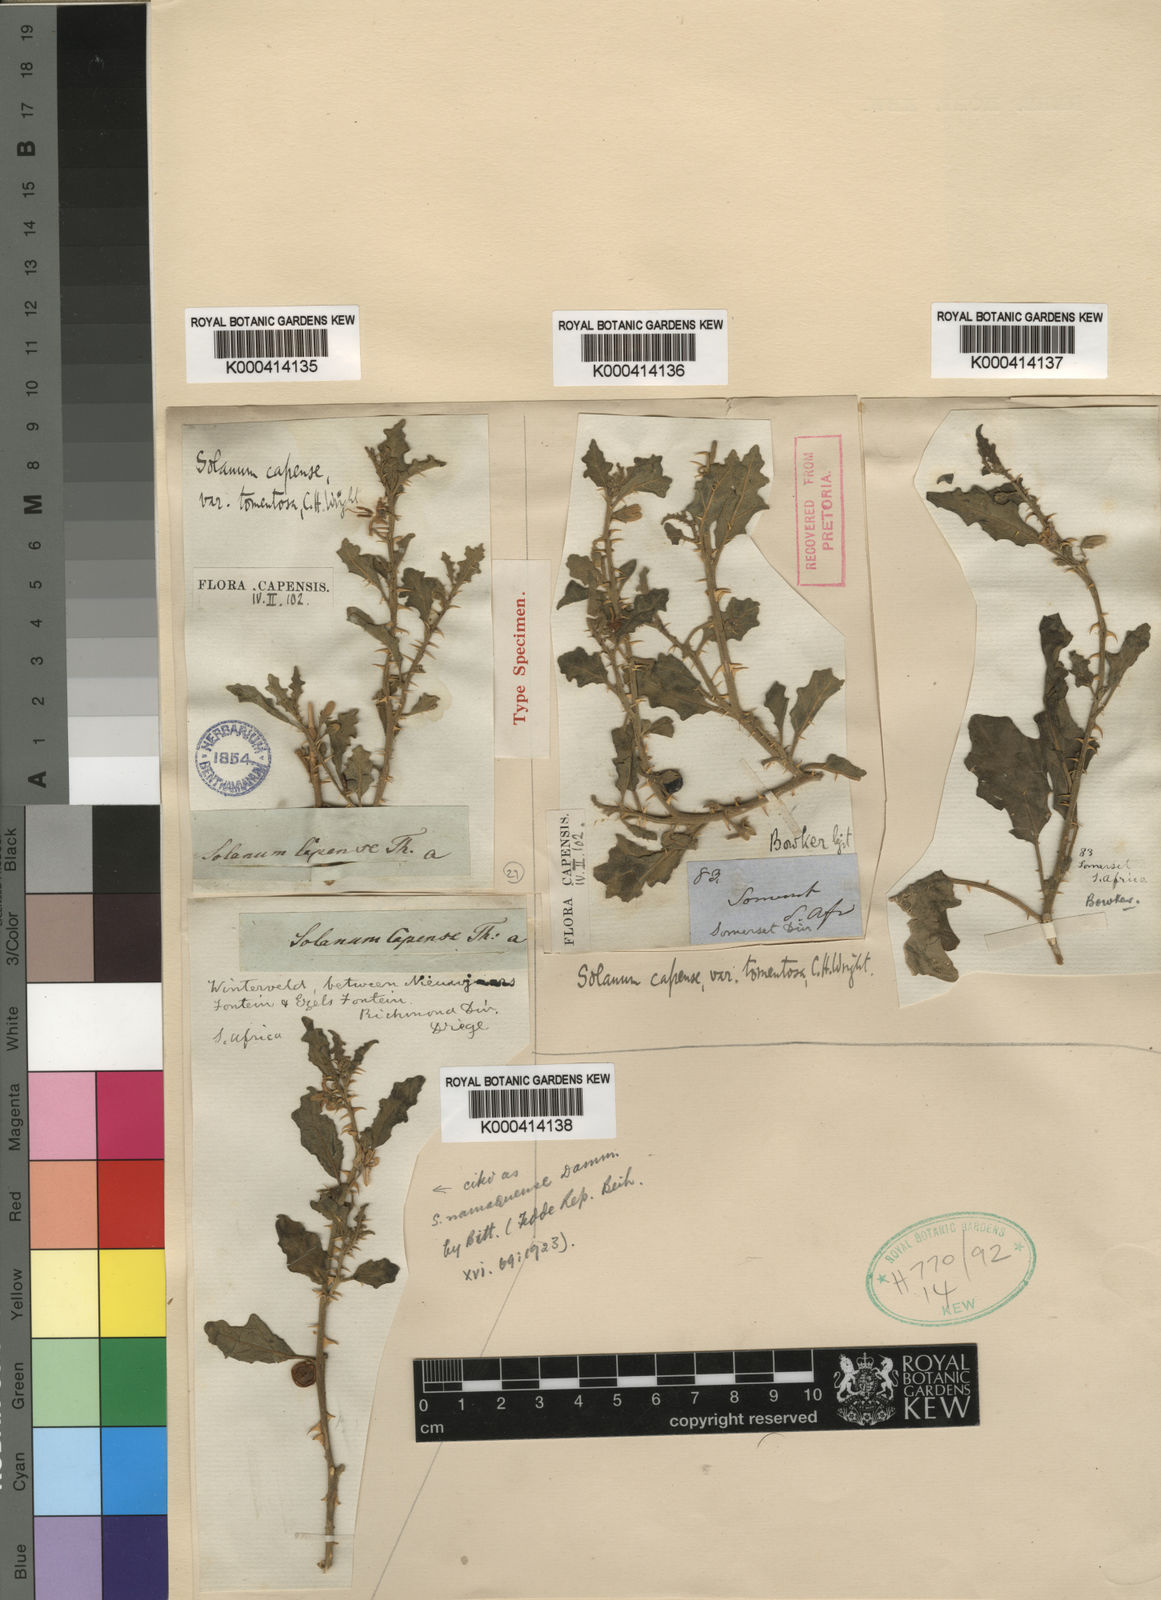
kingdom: Plantae
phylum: Tracheophyta
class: Magnoliopsida
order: Solanales
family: Solanaceae
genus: Solanum
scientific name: Solanum
